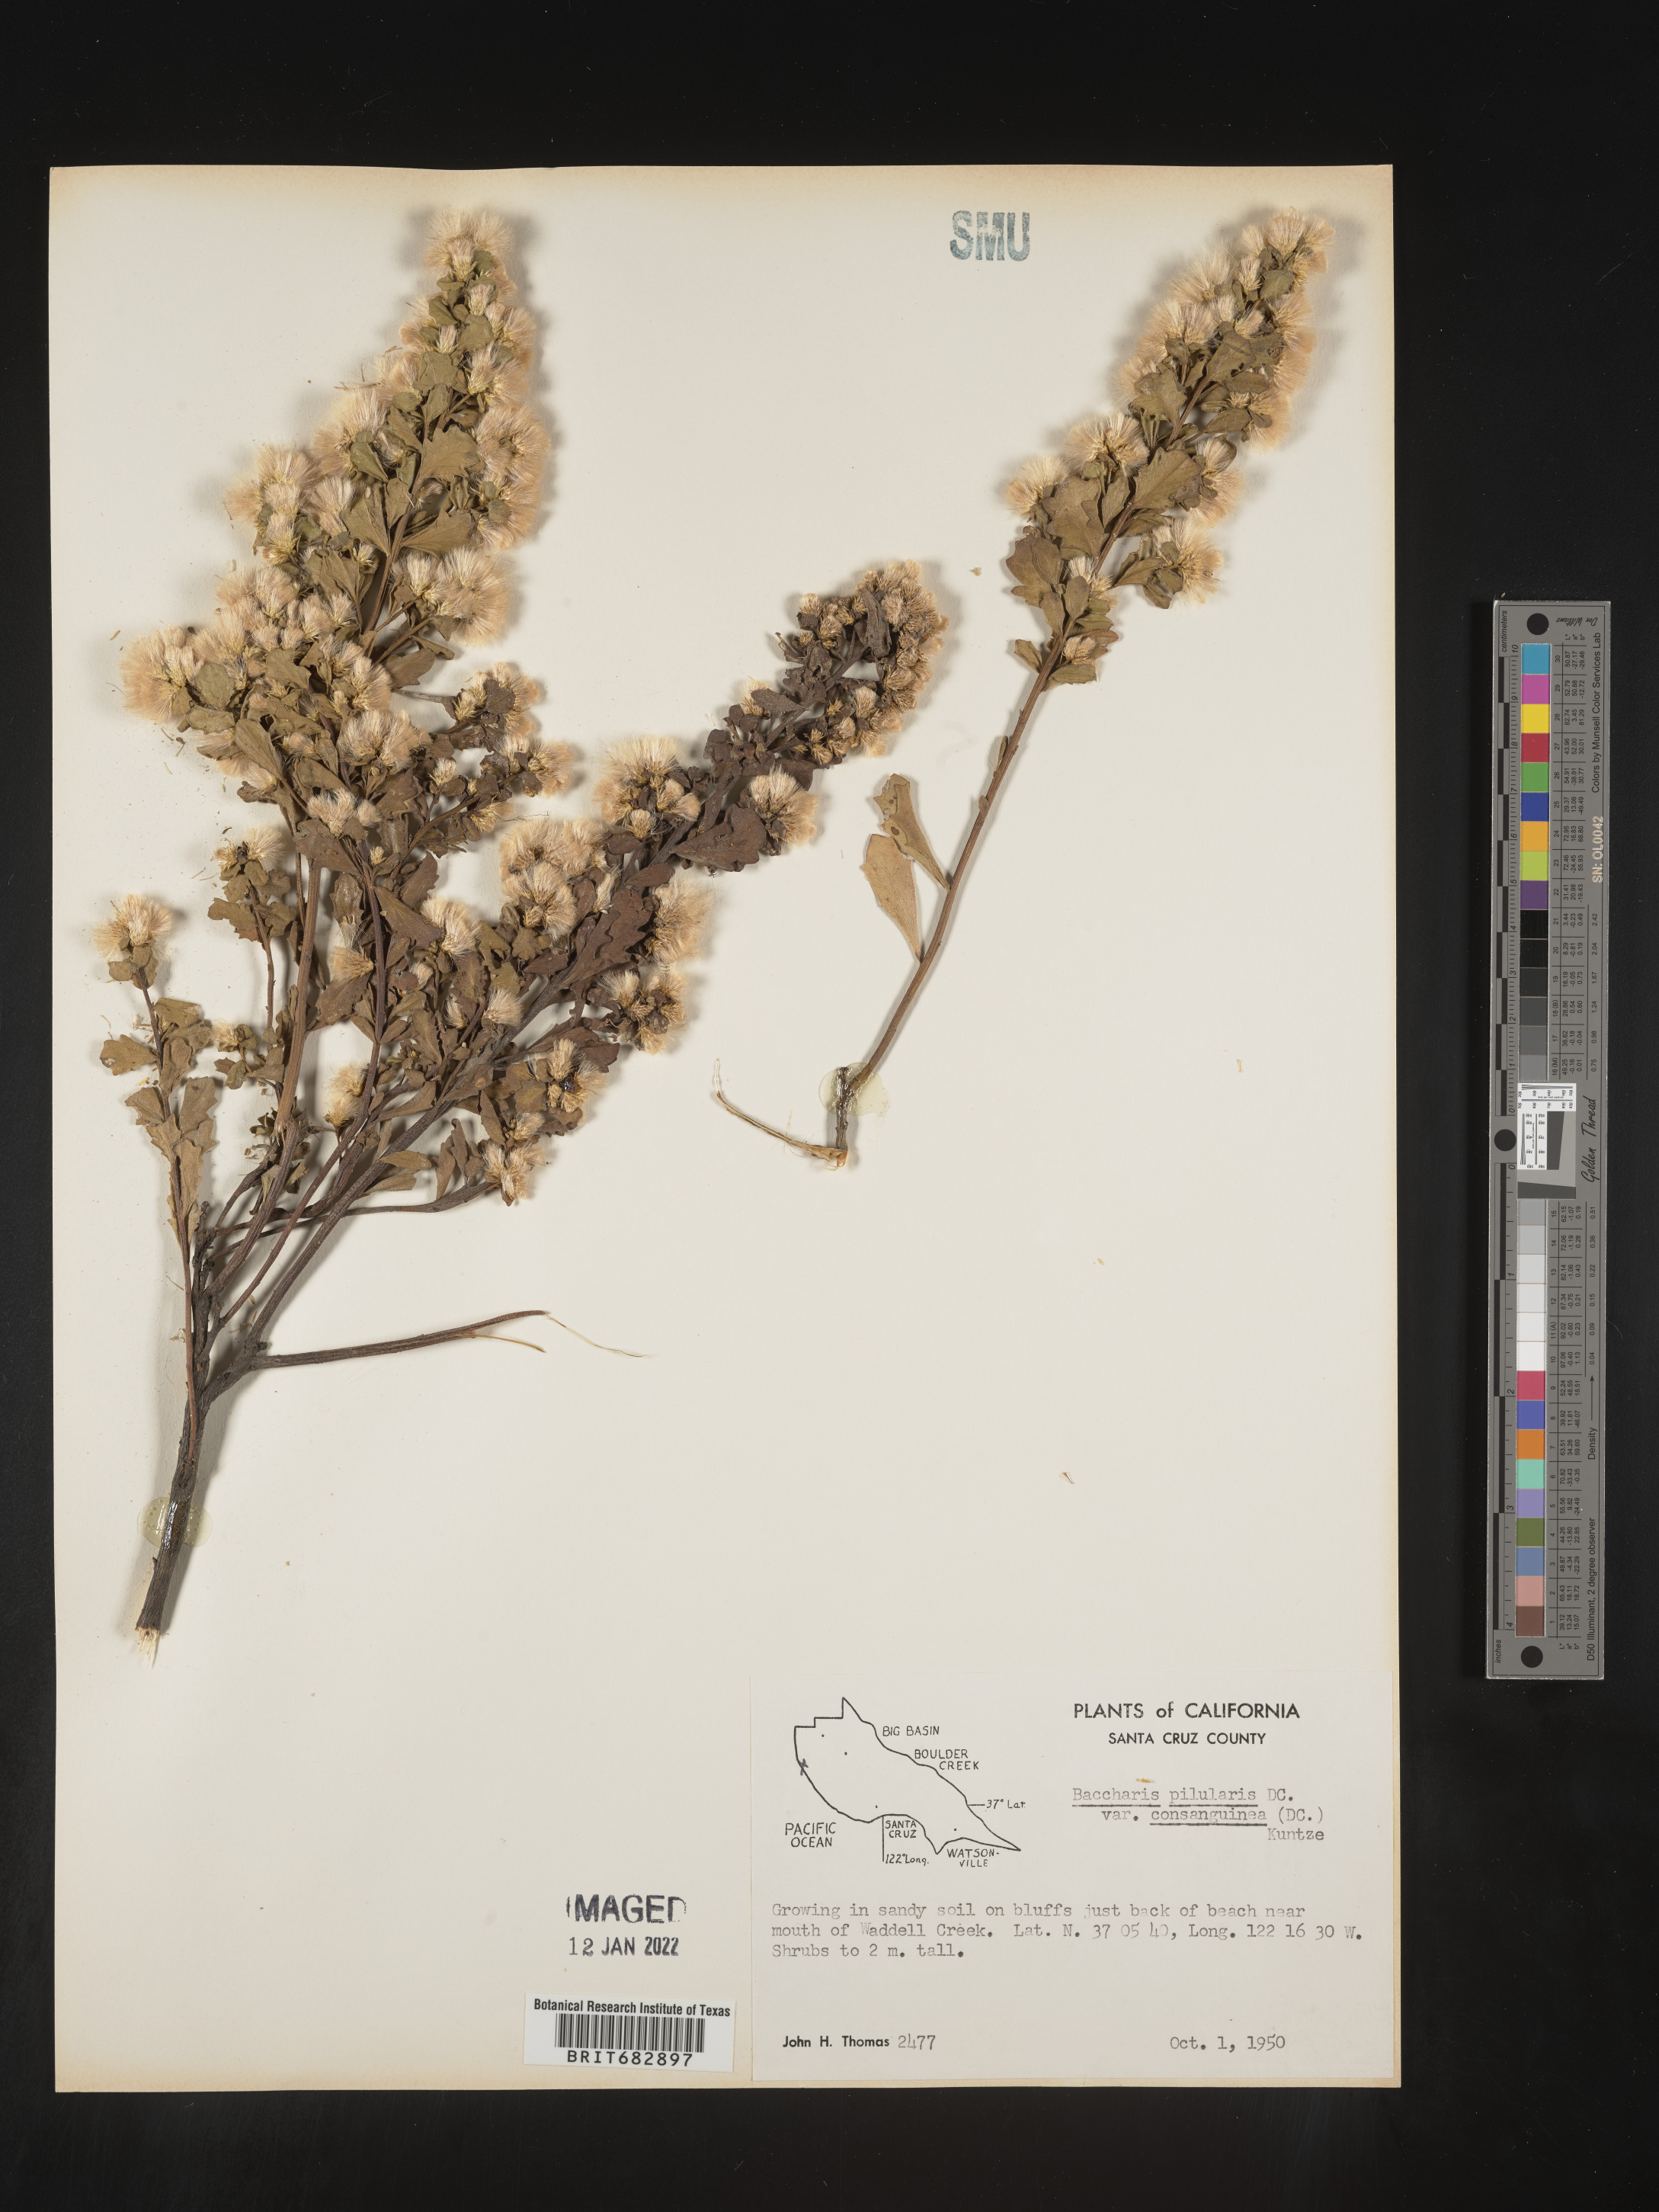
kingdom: Plantae
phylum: Tracheophyta
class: Magnoliopsida
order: Asterales
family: Asteraceae
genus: Baccharis
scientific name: Baccharis pilularis
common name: Coyotebrush
